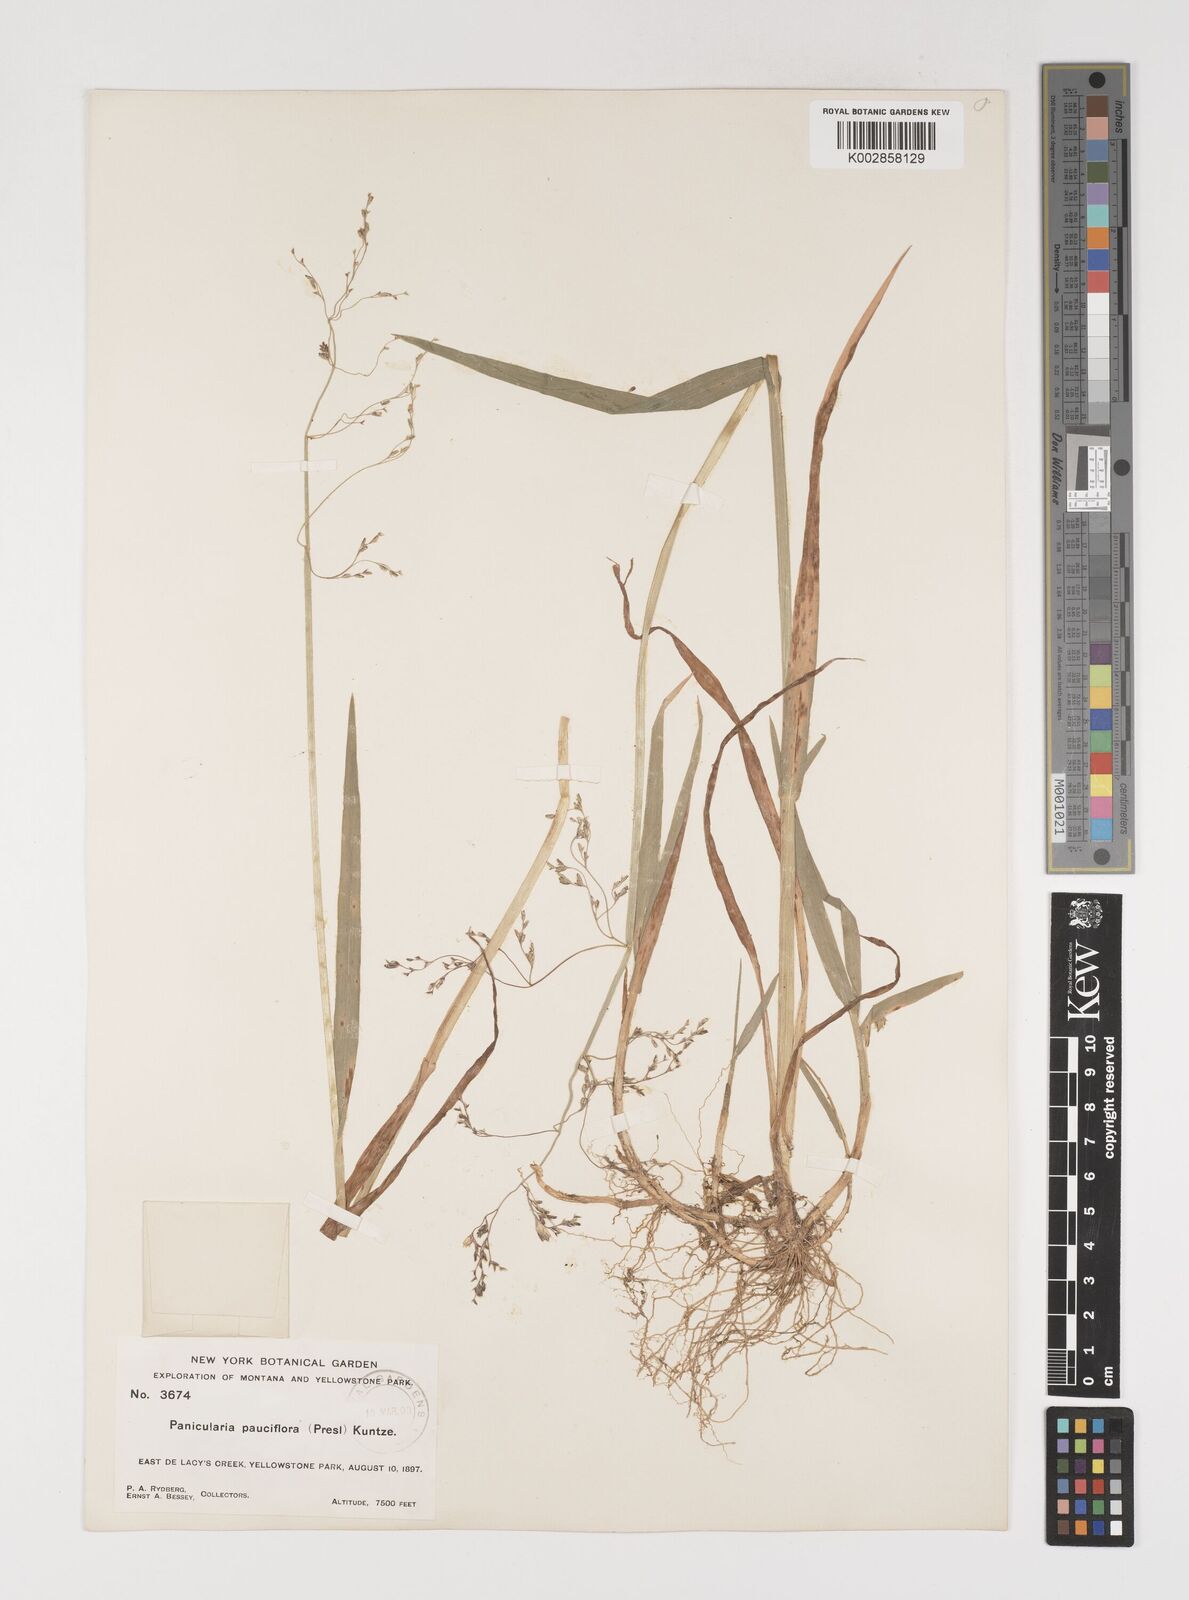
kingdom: Plantae
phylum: Tracheophyta
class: Liliopsida
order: Poales
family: Poaceae
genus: Torreyochloa
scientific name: Torreyochloa pallida
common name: Pale false mannagrass
